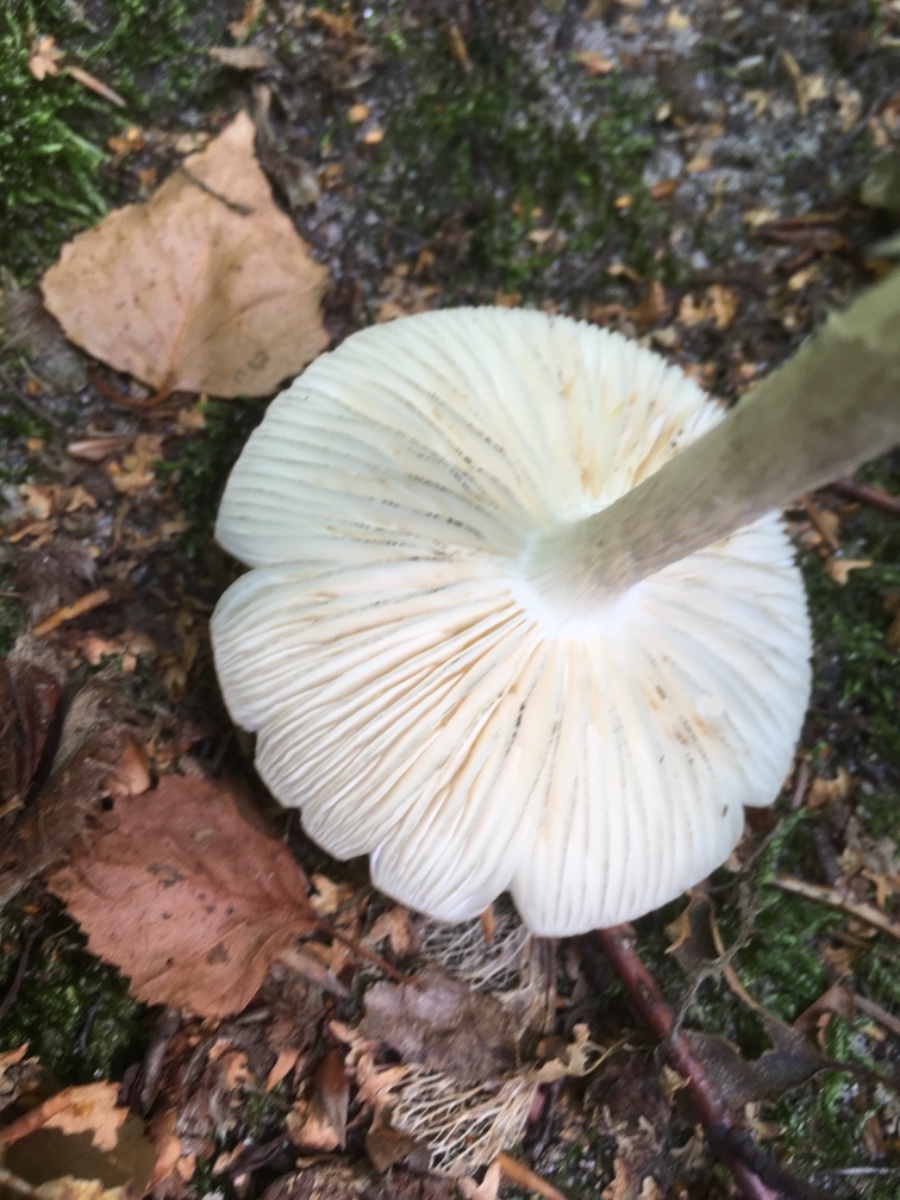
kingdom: Fungi
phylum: Basidiomycota
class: Agaricomycetes
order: Agaricales
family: Physalacriaceae
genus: Hymenopellis
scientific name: Hymenopellis radicata
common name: almindelig pælerodshat
